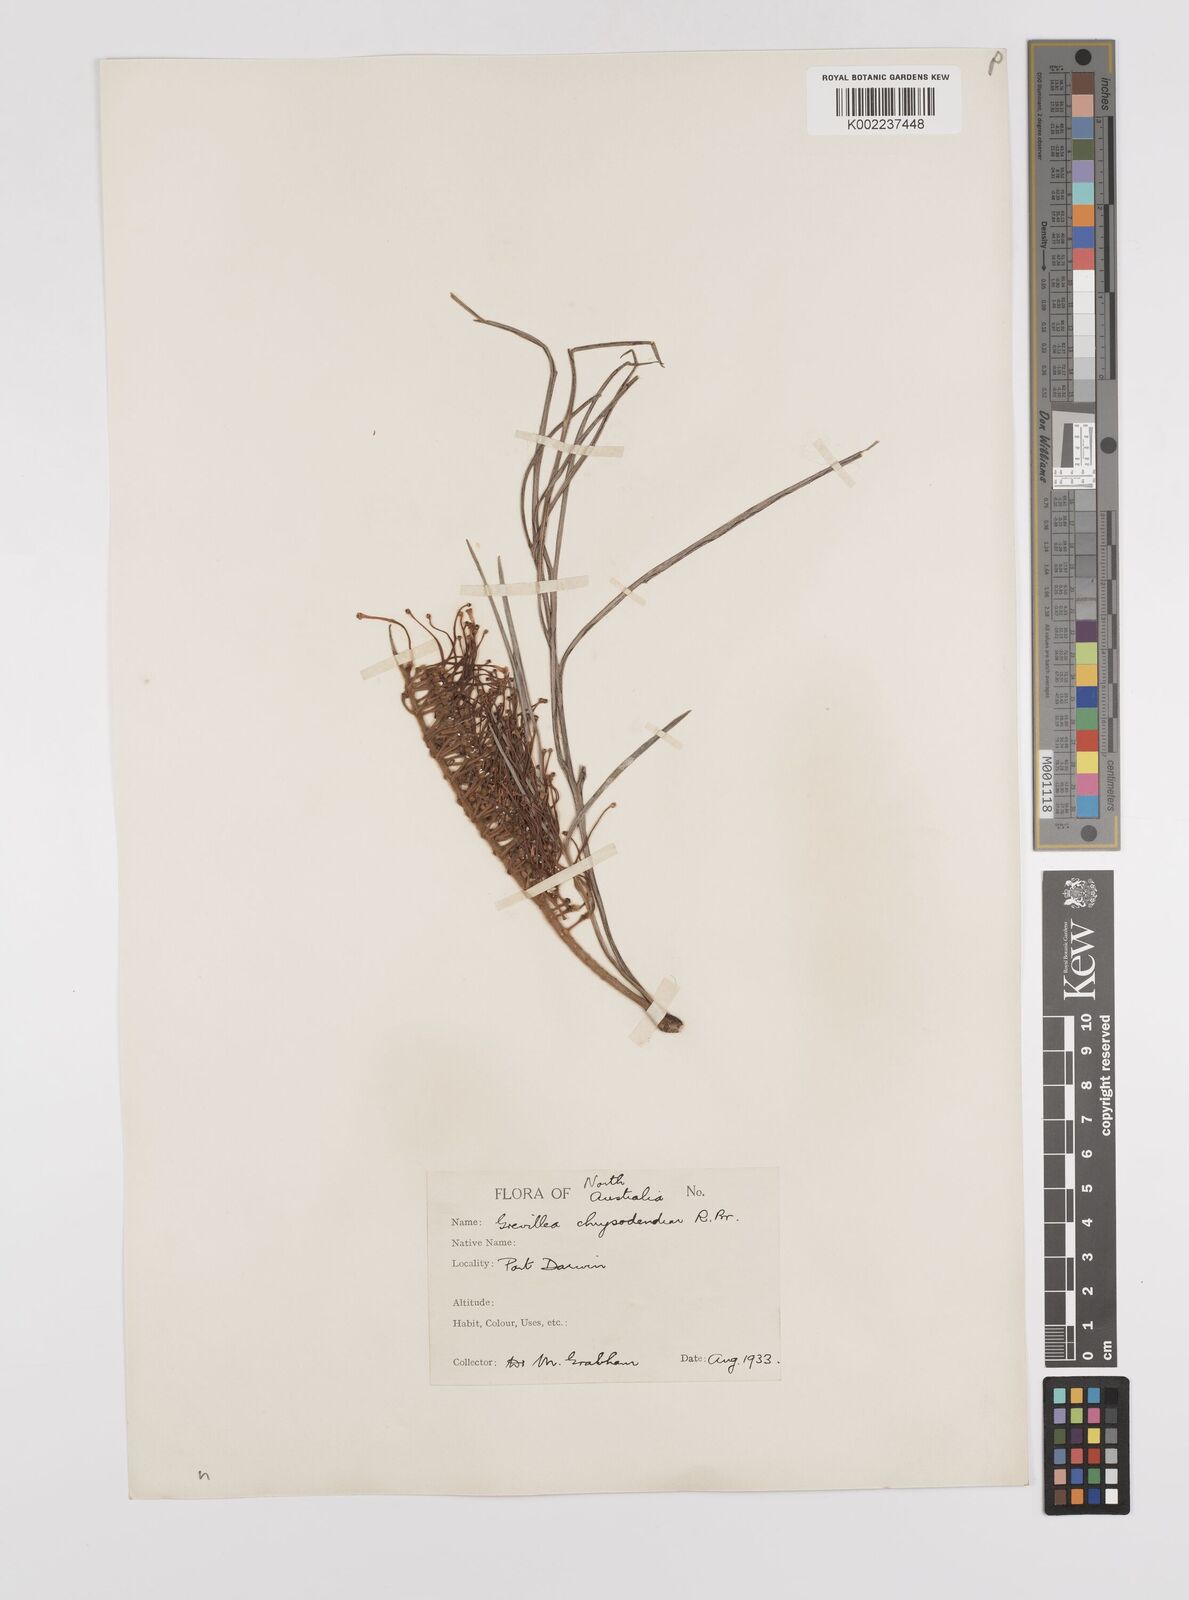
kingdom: Plantae
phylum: Tracheophyta
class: Magnoliopsida
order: Proteales
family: Proteaceae
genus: Grevillea
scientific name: Grevillea pteridifolia
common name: Golden grevillea
